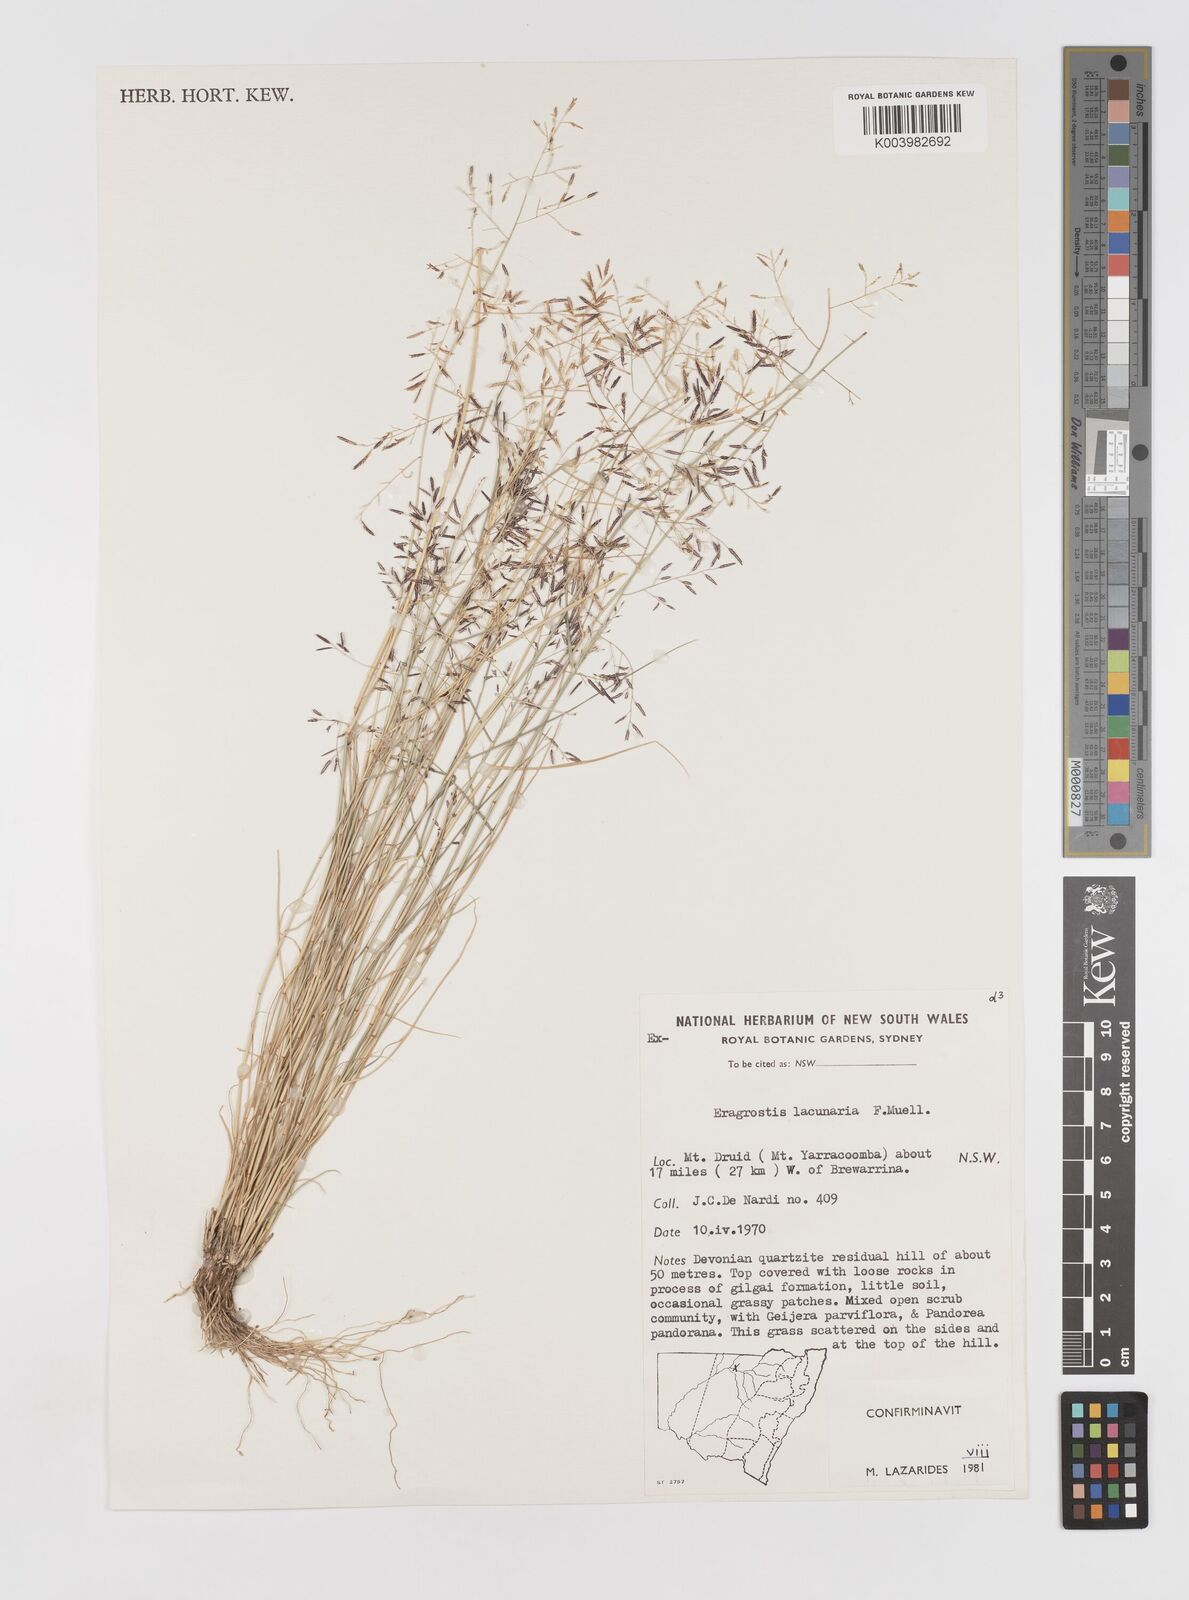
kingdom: Plantae
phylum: Tracheophyta
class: Liliopsida
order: Poales
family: Poaceae
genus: Eragrostis
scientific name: Eragrostis lacunaria
